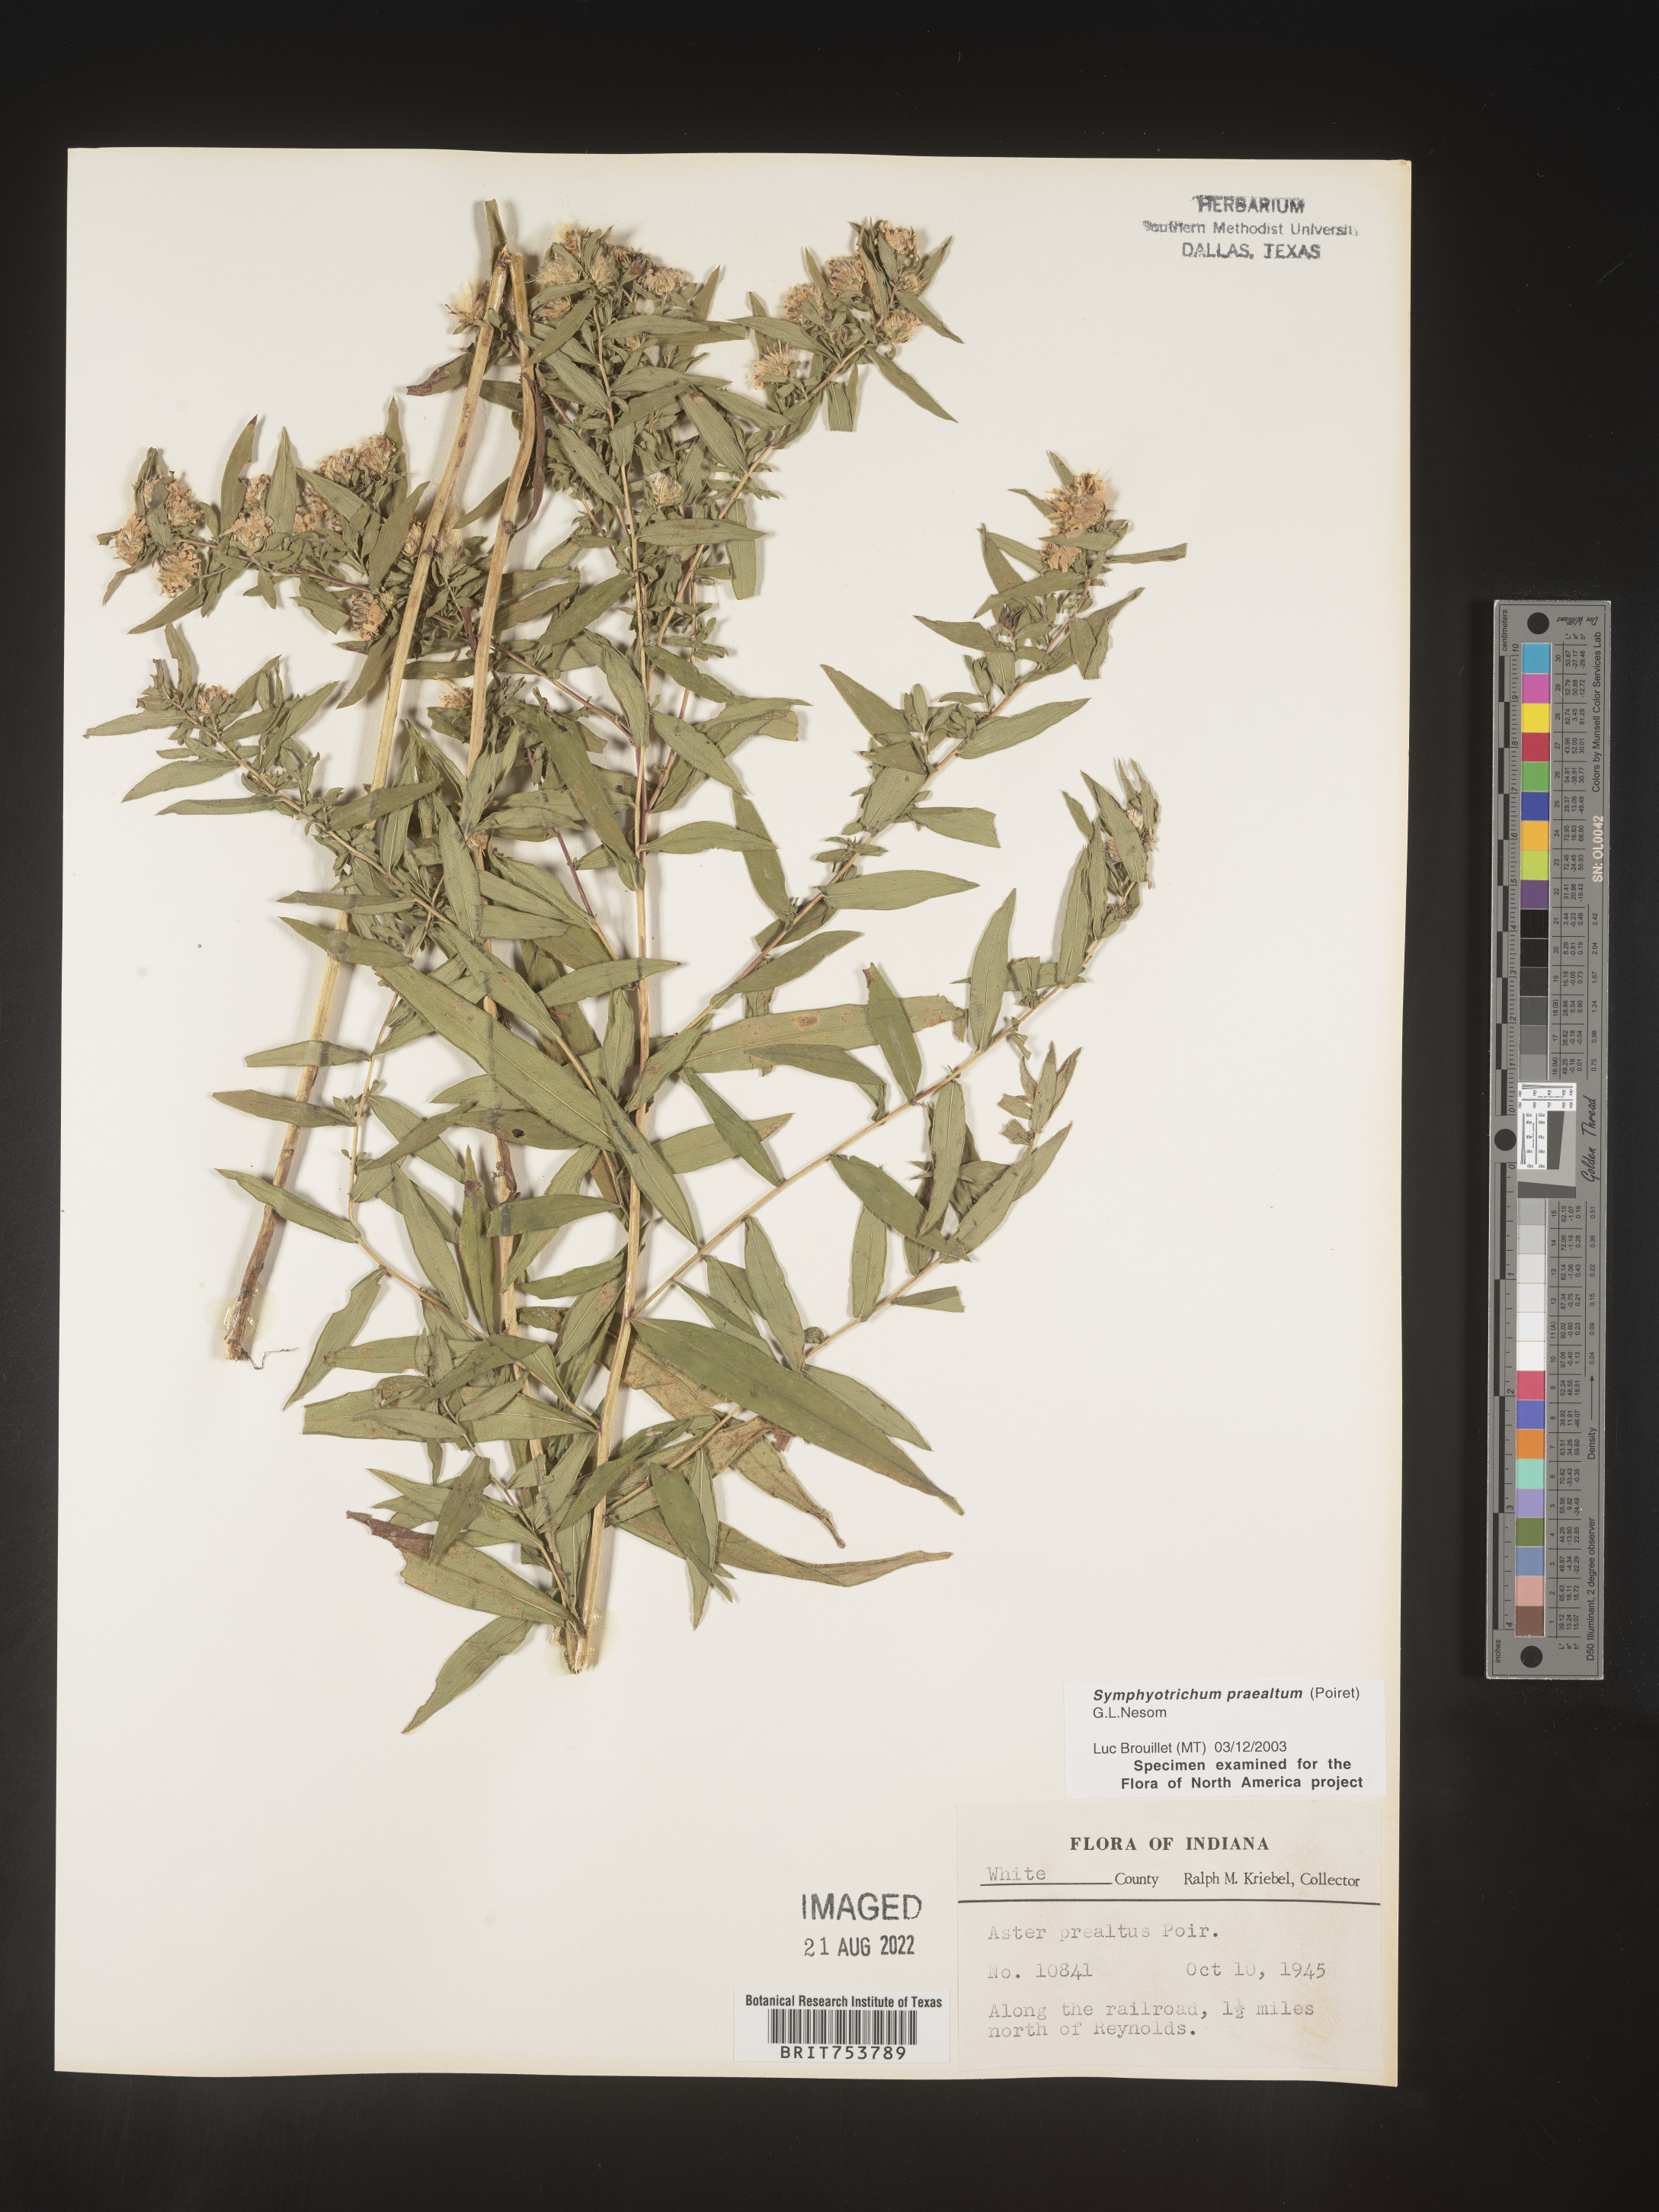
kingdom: Plantae
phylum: Tracheophyta
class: Magnoliopsida
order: Asterales
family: Asteraceae
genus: Symphyotrichum
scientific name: Symphyotrichum praealtum
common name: Willow aster
